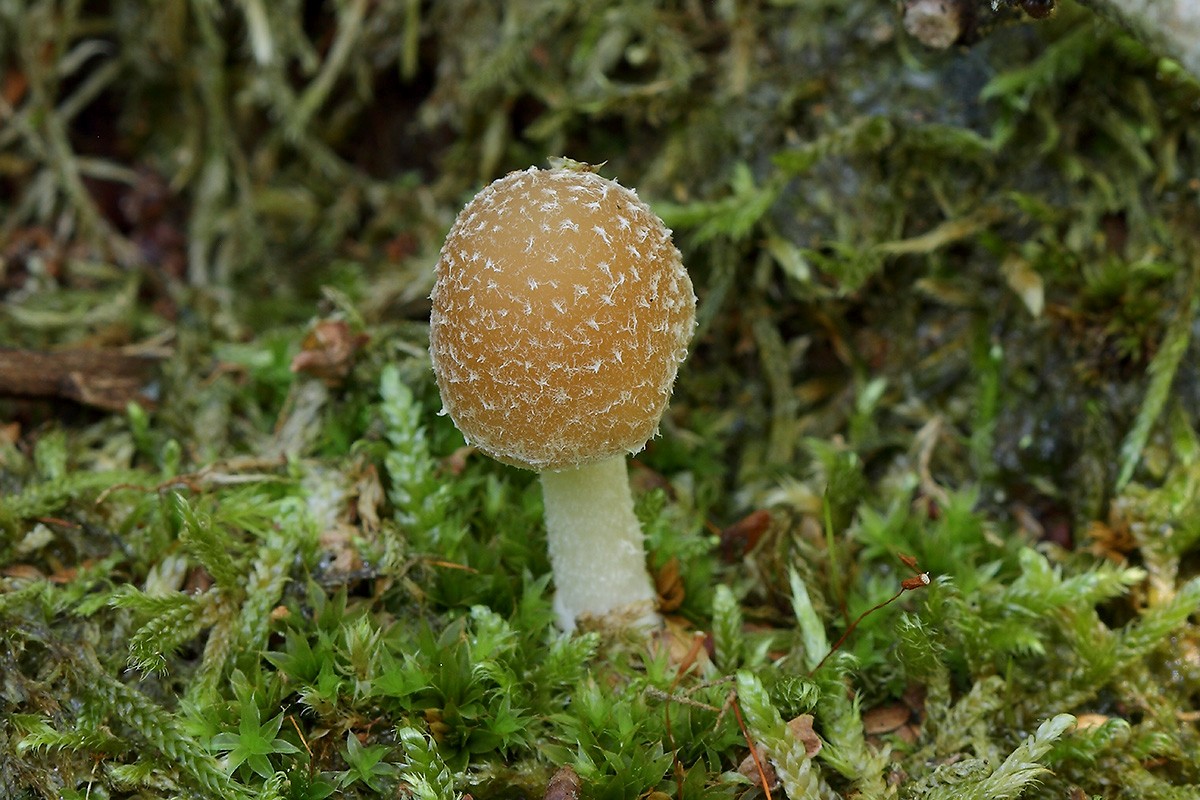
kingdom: Fungi
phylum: Basidiomycota
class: Agaricomycetes
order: Agaricales
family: Psathyrellaceae
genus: Candolleomyces
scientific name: Candolleomyces candolleanus
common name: Candolles mørkhat
